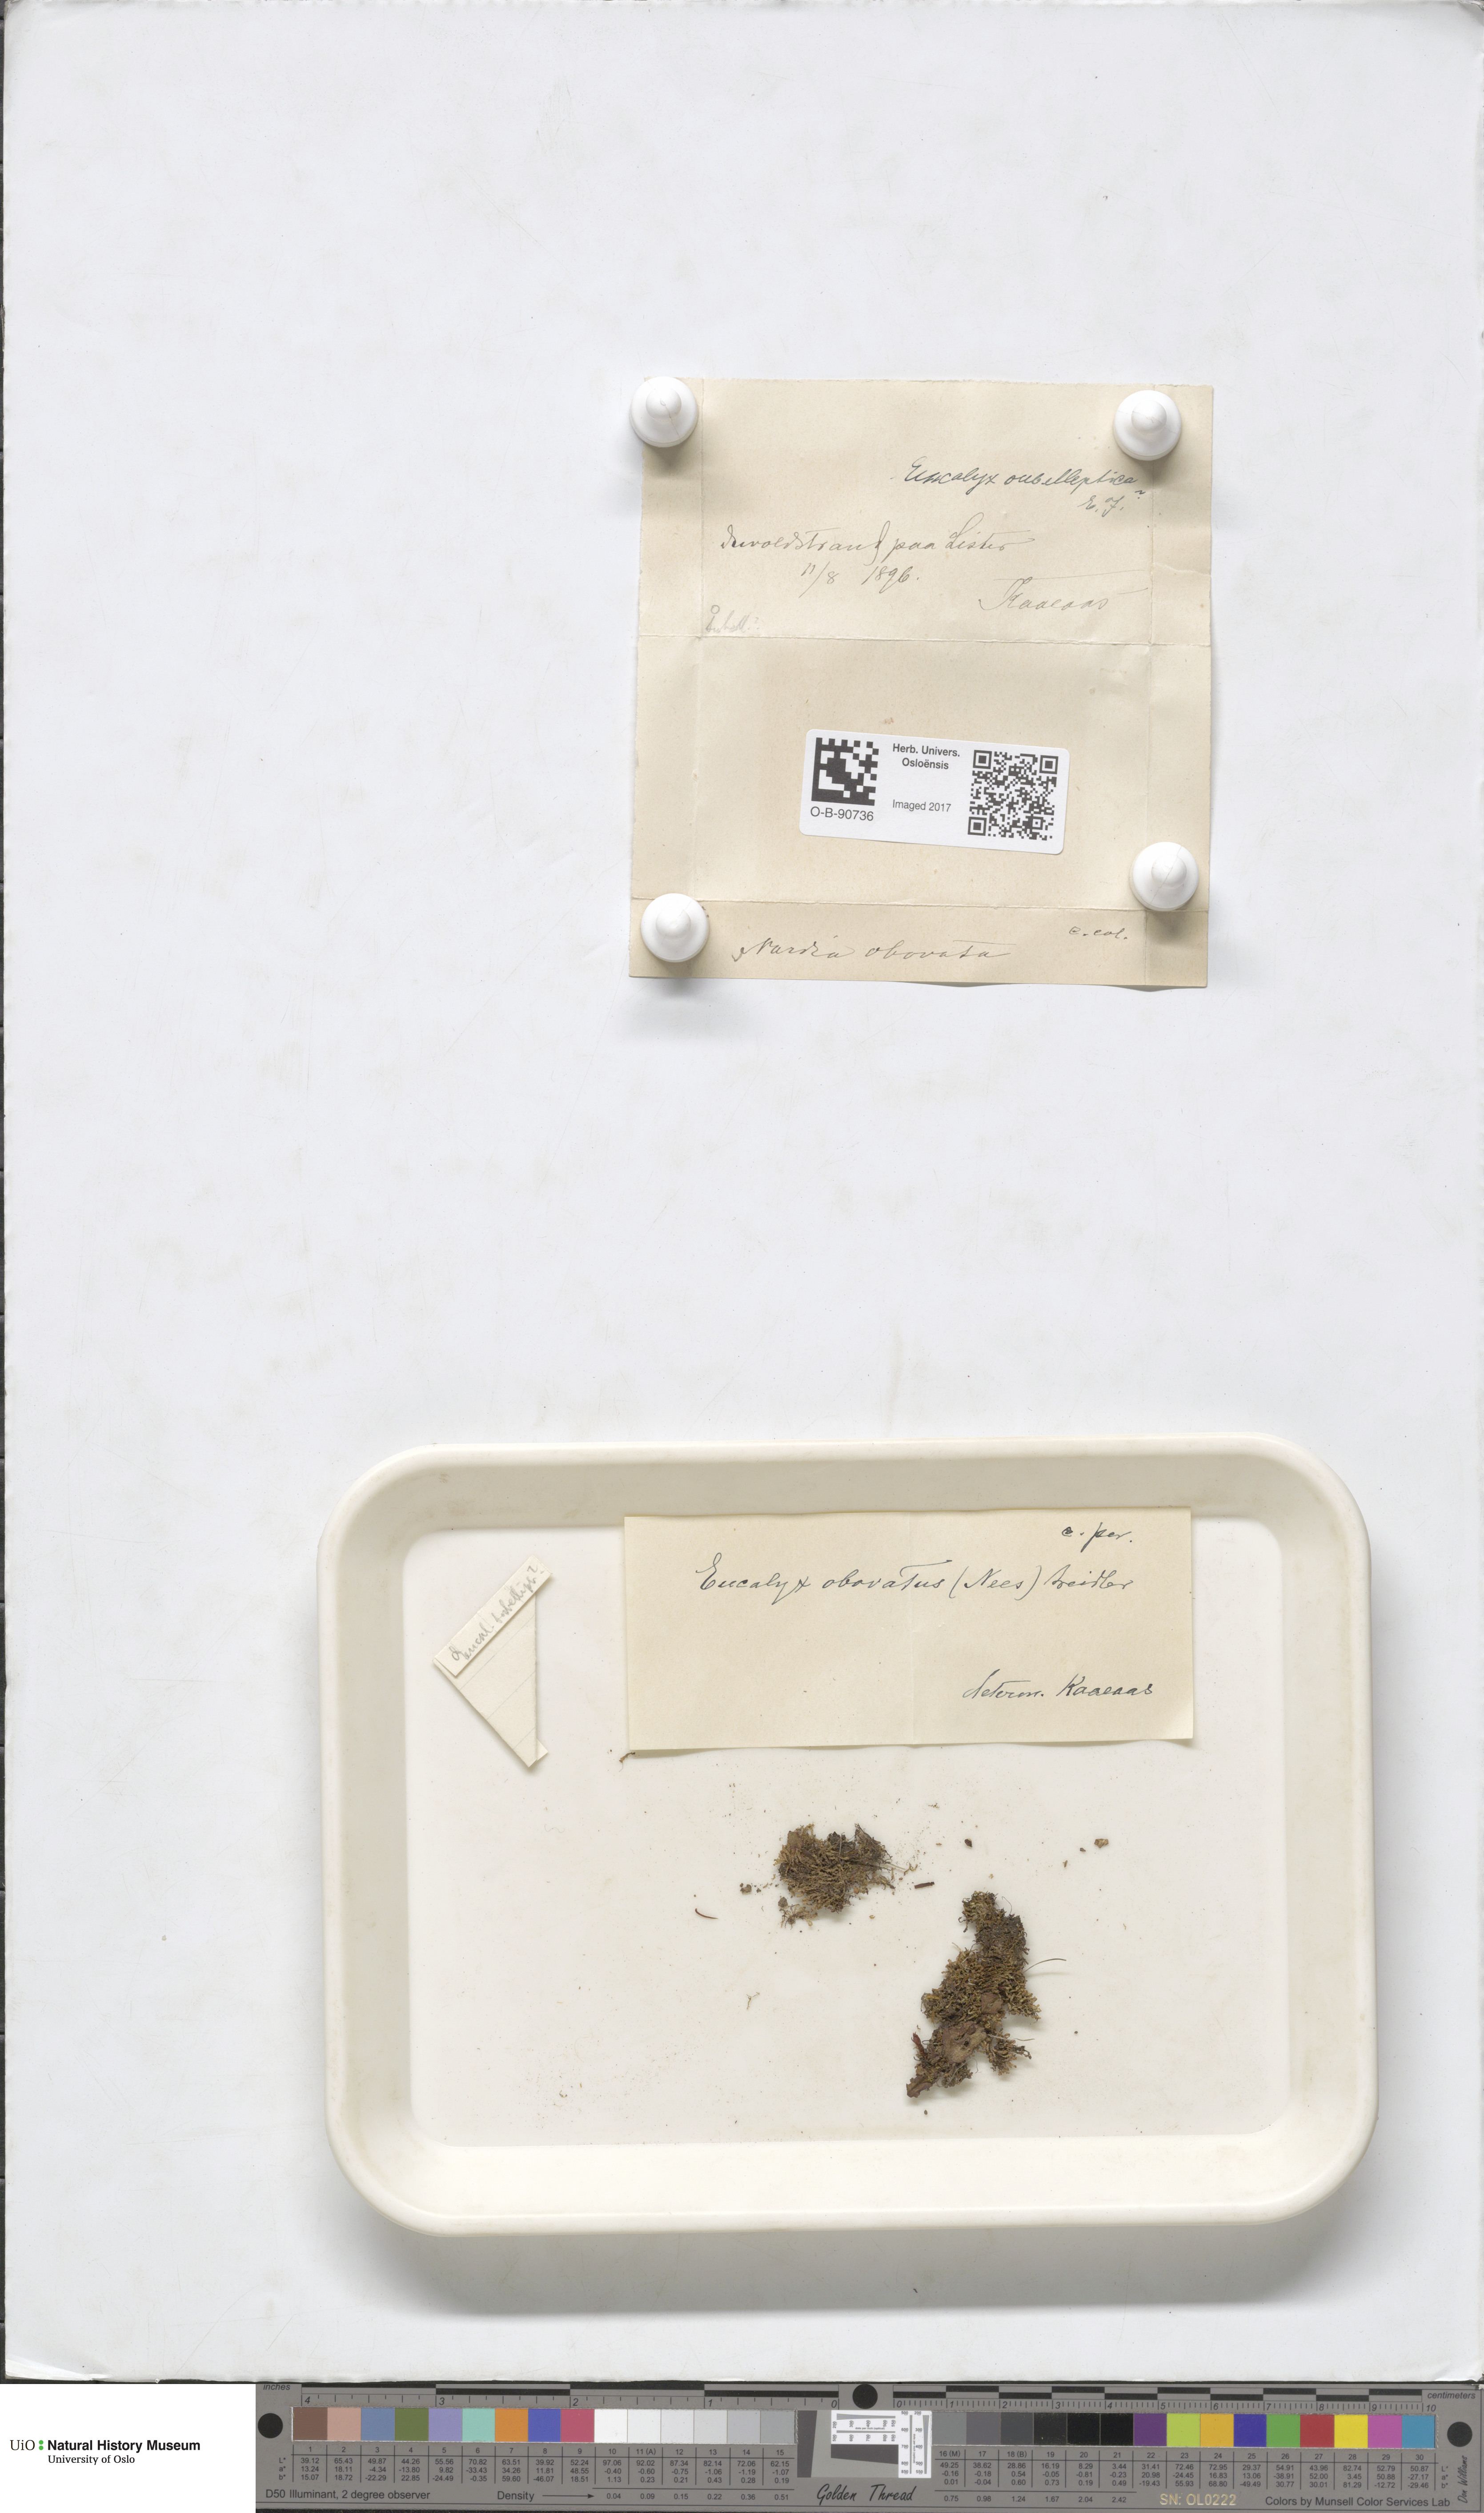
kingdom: Plantae
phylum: Marchantiophyta
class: Jungermanniopsida
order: Jungermanniales
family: Solenostomataceae
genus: Solenostoma
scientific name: Solenostoma obovatum
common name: Egg flapwort
